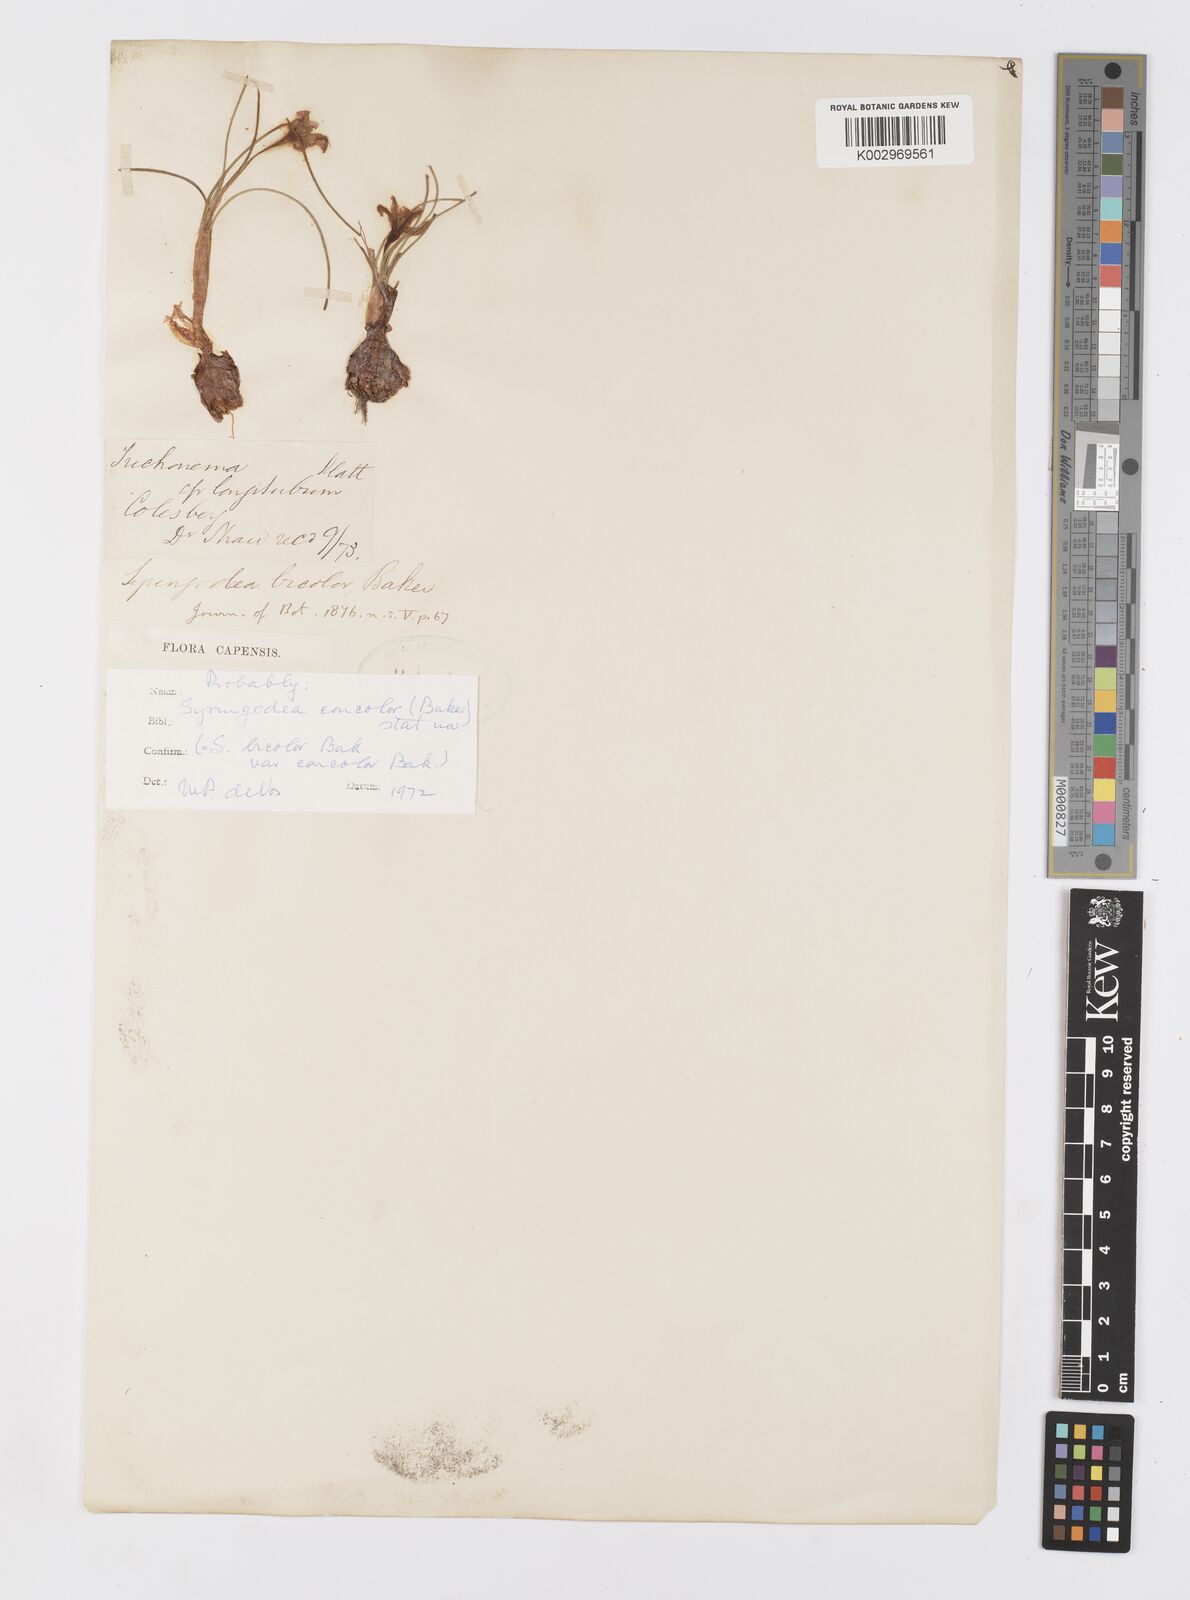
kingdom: Plantae
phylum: Tracheophyta
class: Liliopsida
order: Asparagales
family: Iridaceae
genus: Syringodea
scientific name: Syringodea concolor
